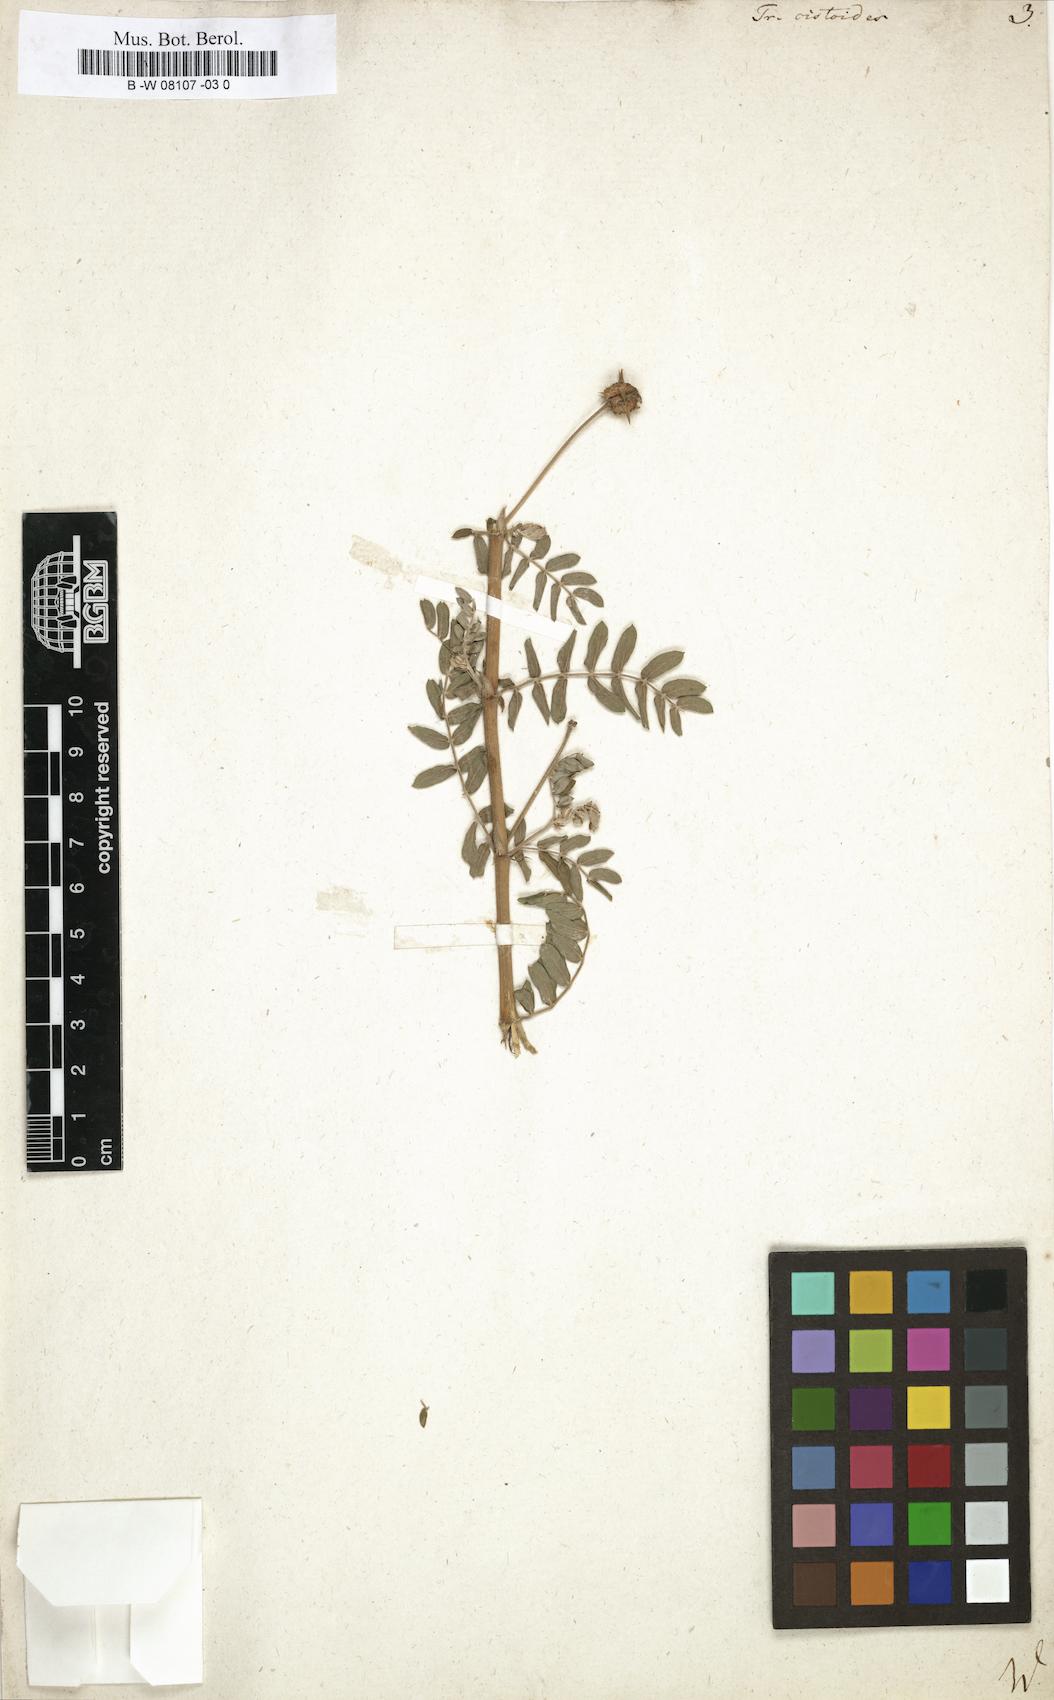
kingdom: Plantae
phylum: Tracheophyta
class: Magnoliopsida
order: Zygophyllales
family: Zygophyllaceae
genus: Tribulus
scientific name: Tribulus cistoides
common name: Jamaican feverplant
